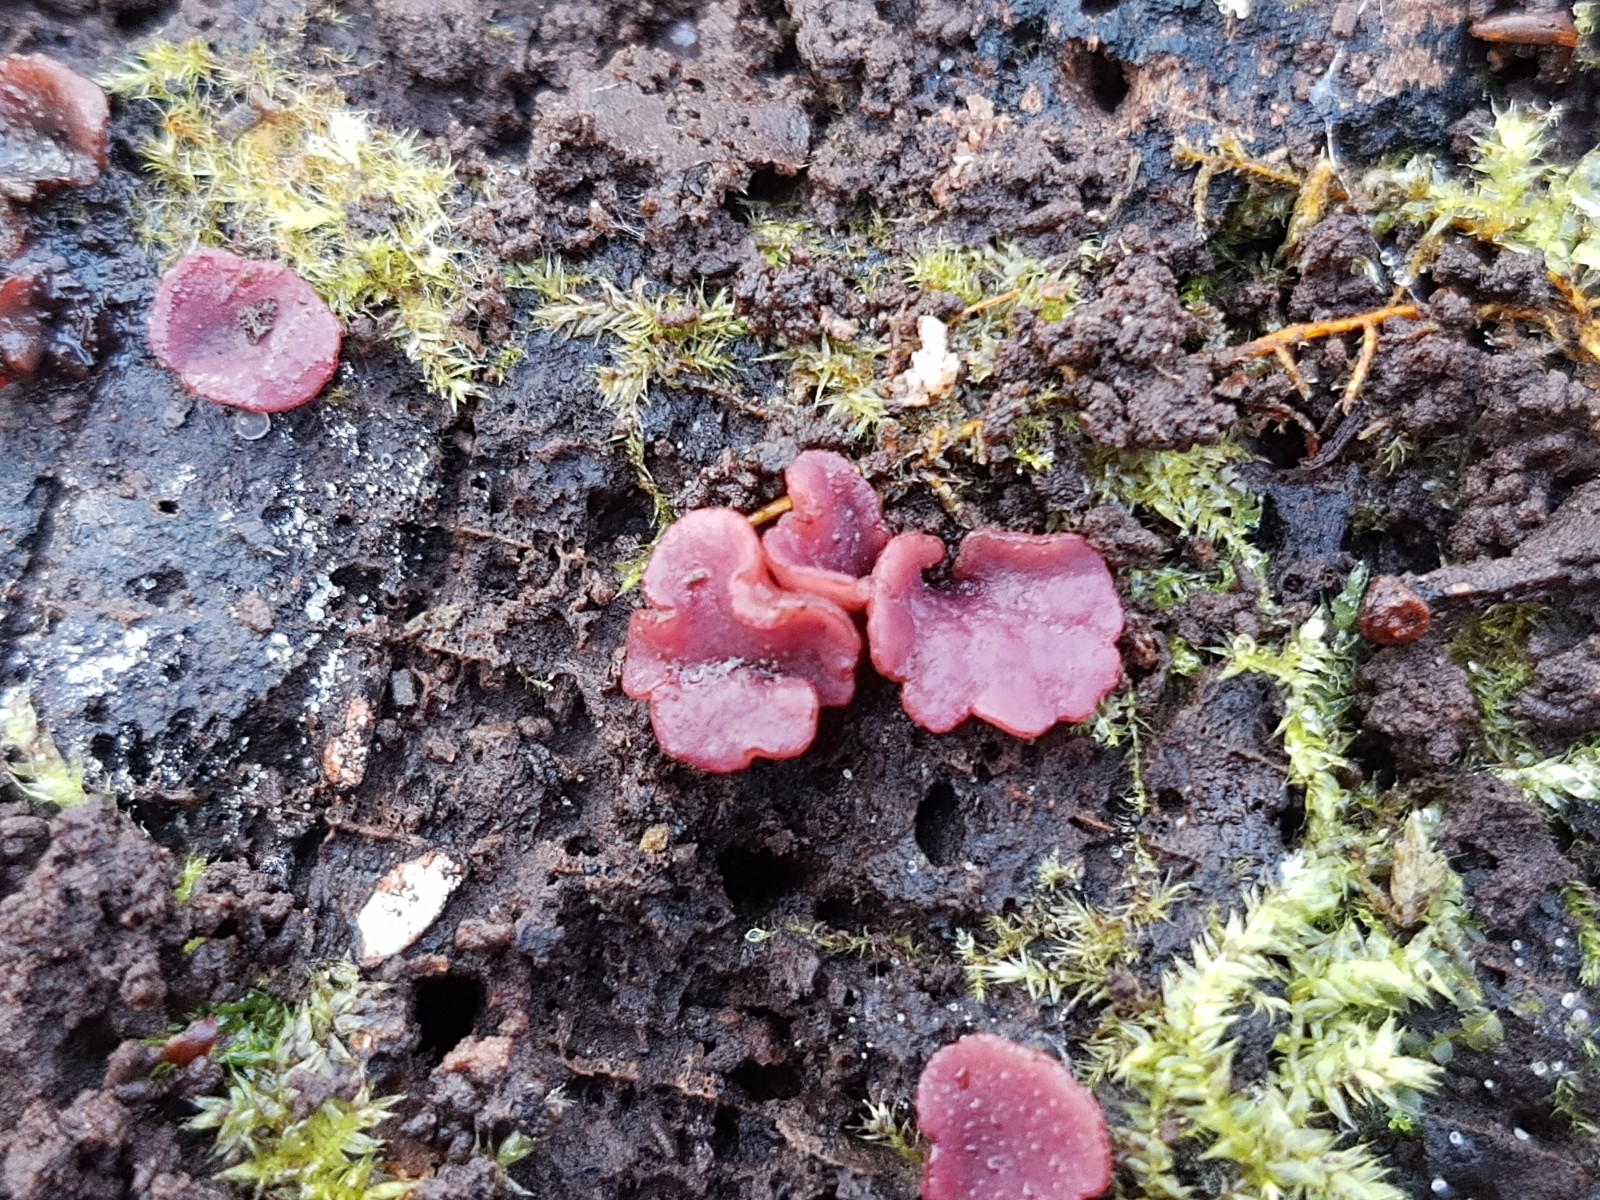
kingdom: Fungi
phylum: Ascomycota
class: Leotiomycetes
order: Helotiales
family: Gelatinodiscaceae
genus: Ascocoryne
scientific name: Ascocoryne cylichnium
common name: stor sejskive
